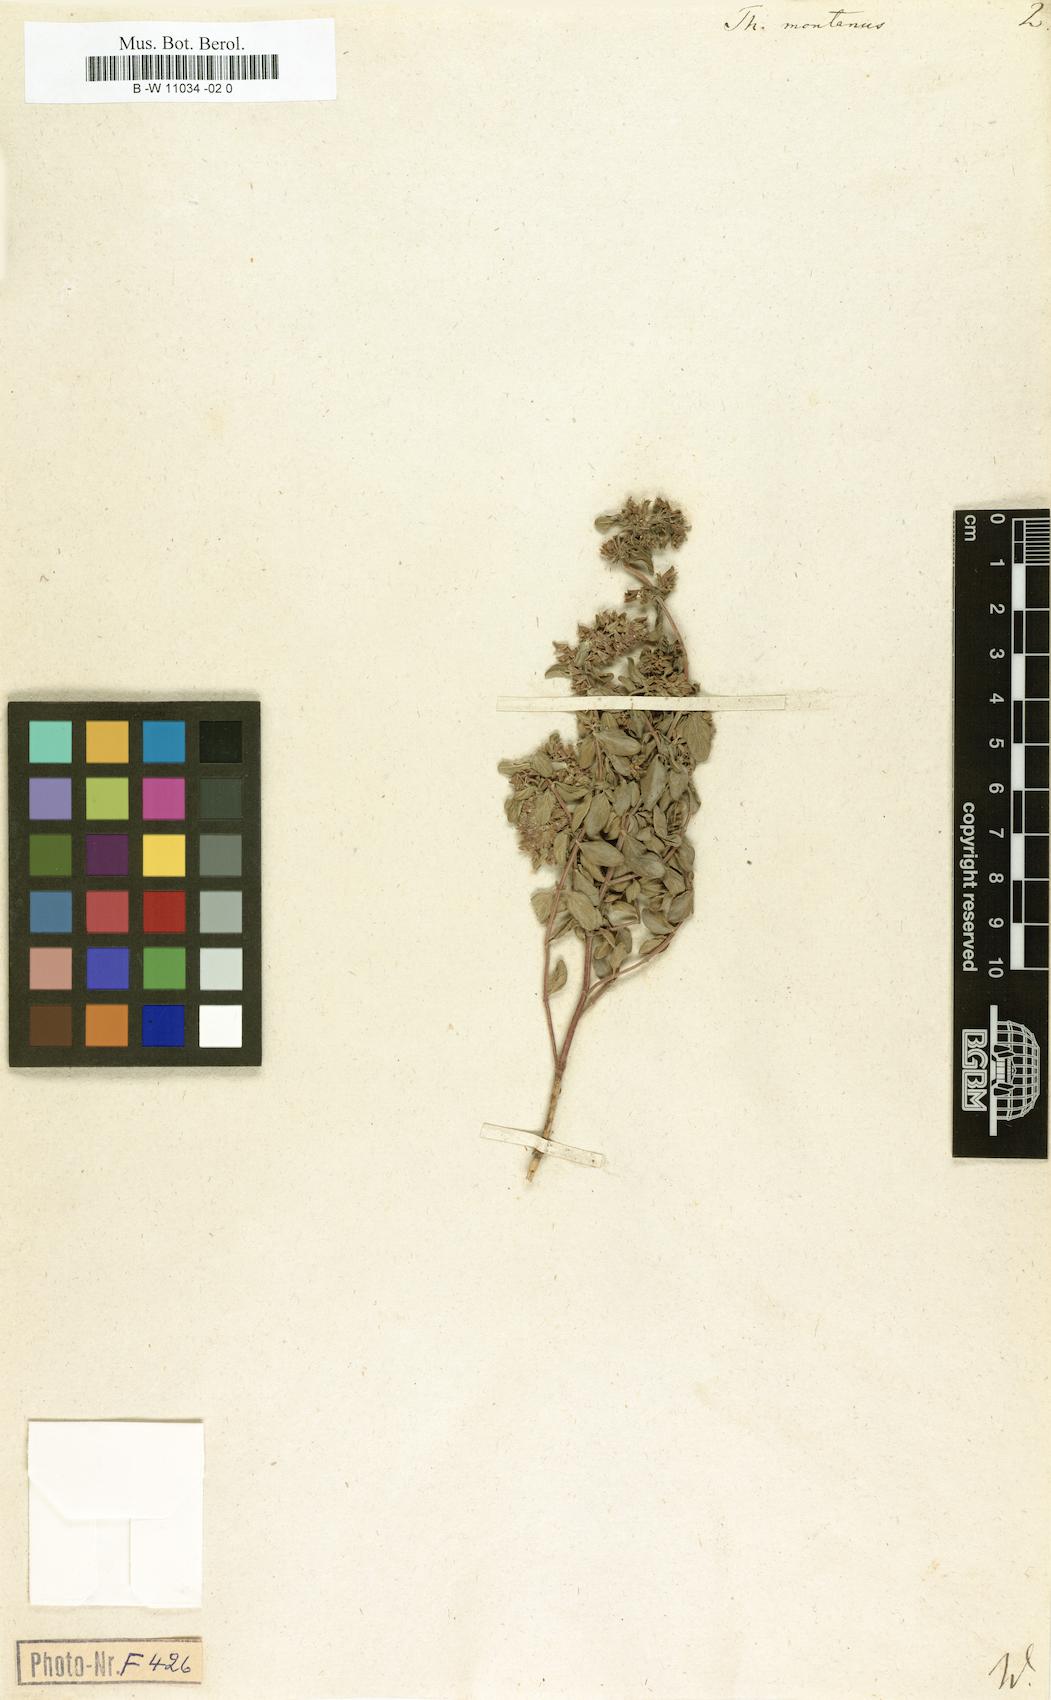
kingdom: Plantae
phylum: Tracheophyta
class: Magnoliopsida
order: Lamiales
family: Lamiaceae
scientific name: Lamiaceae
